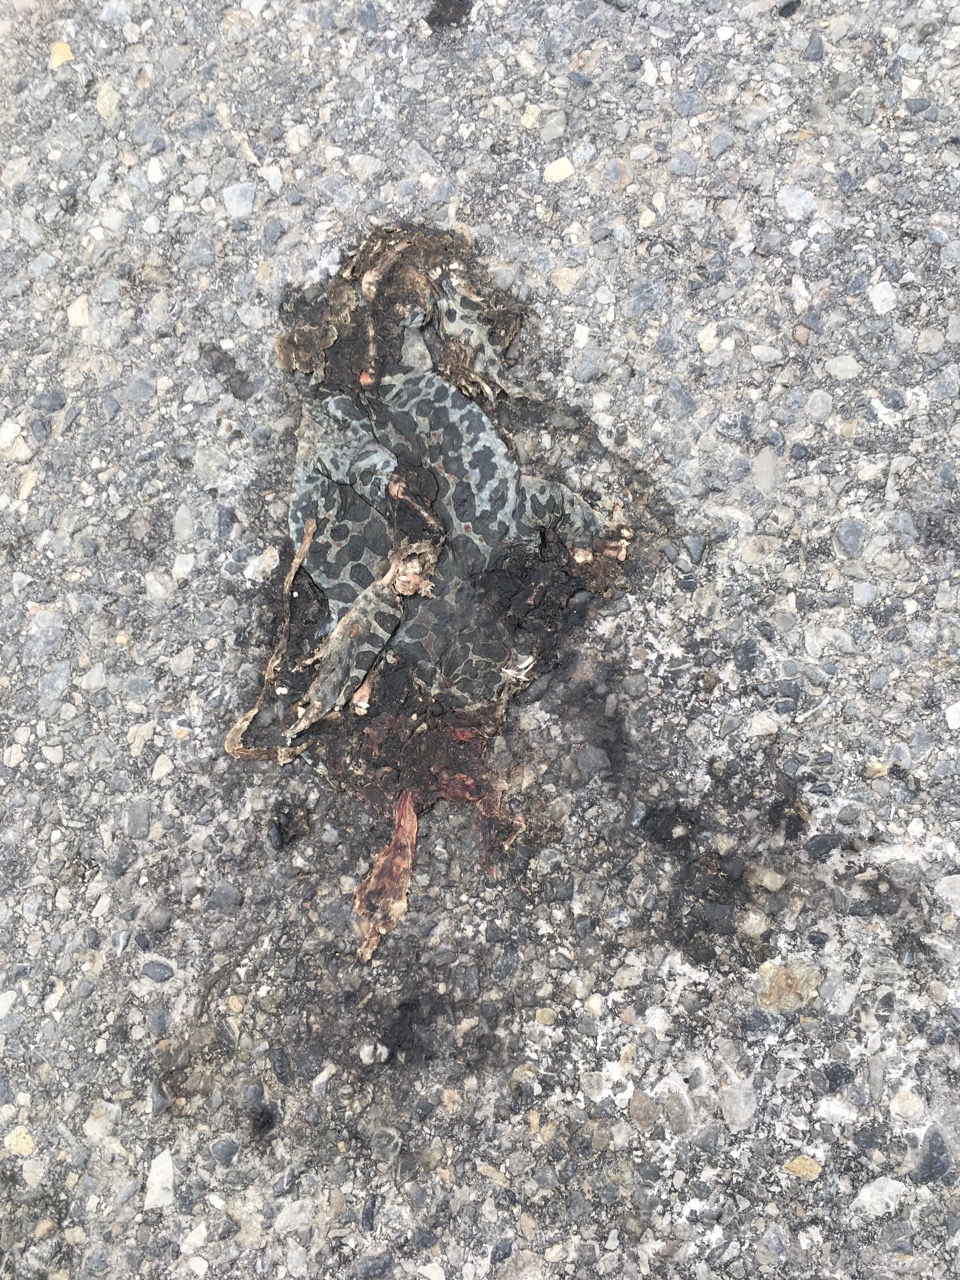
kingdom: Animalia
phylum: Chordata
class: Amphibia
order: Anura
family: Bufonidae
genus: Bufotes
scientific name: Bufotes viridis
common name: European green toad
